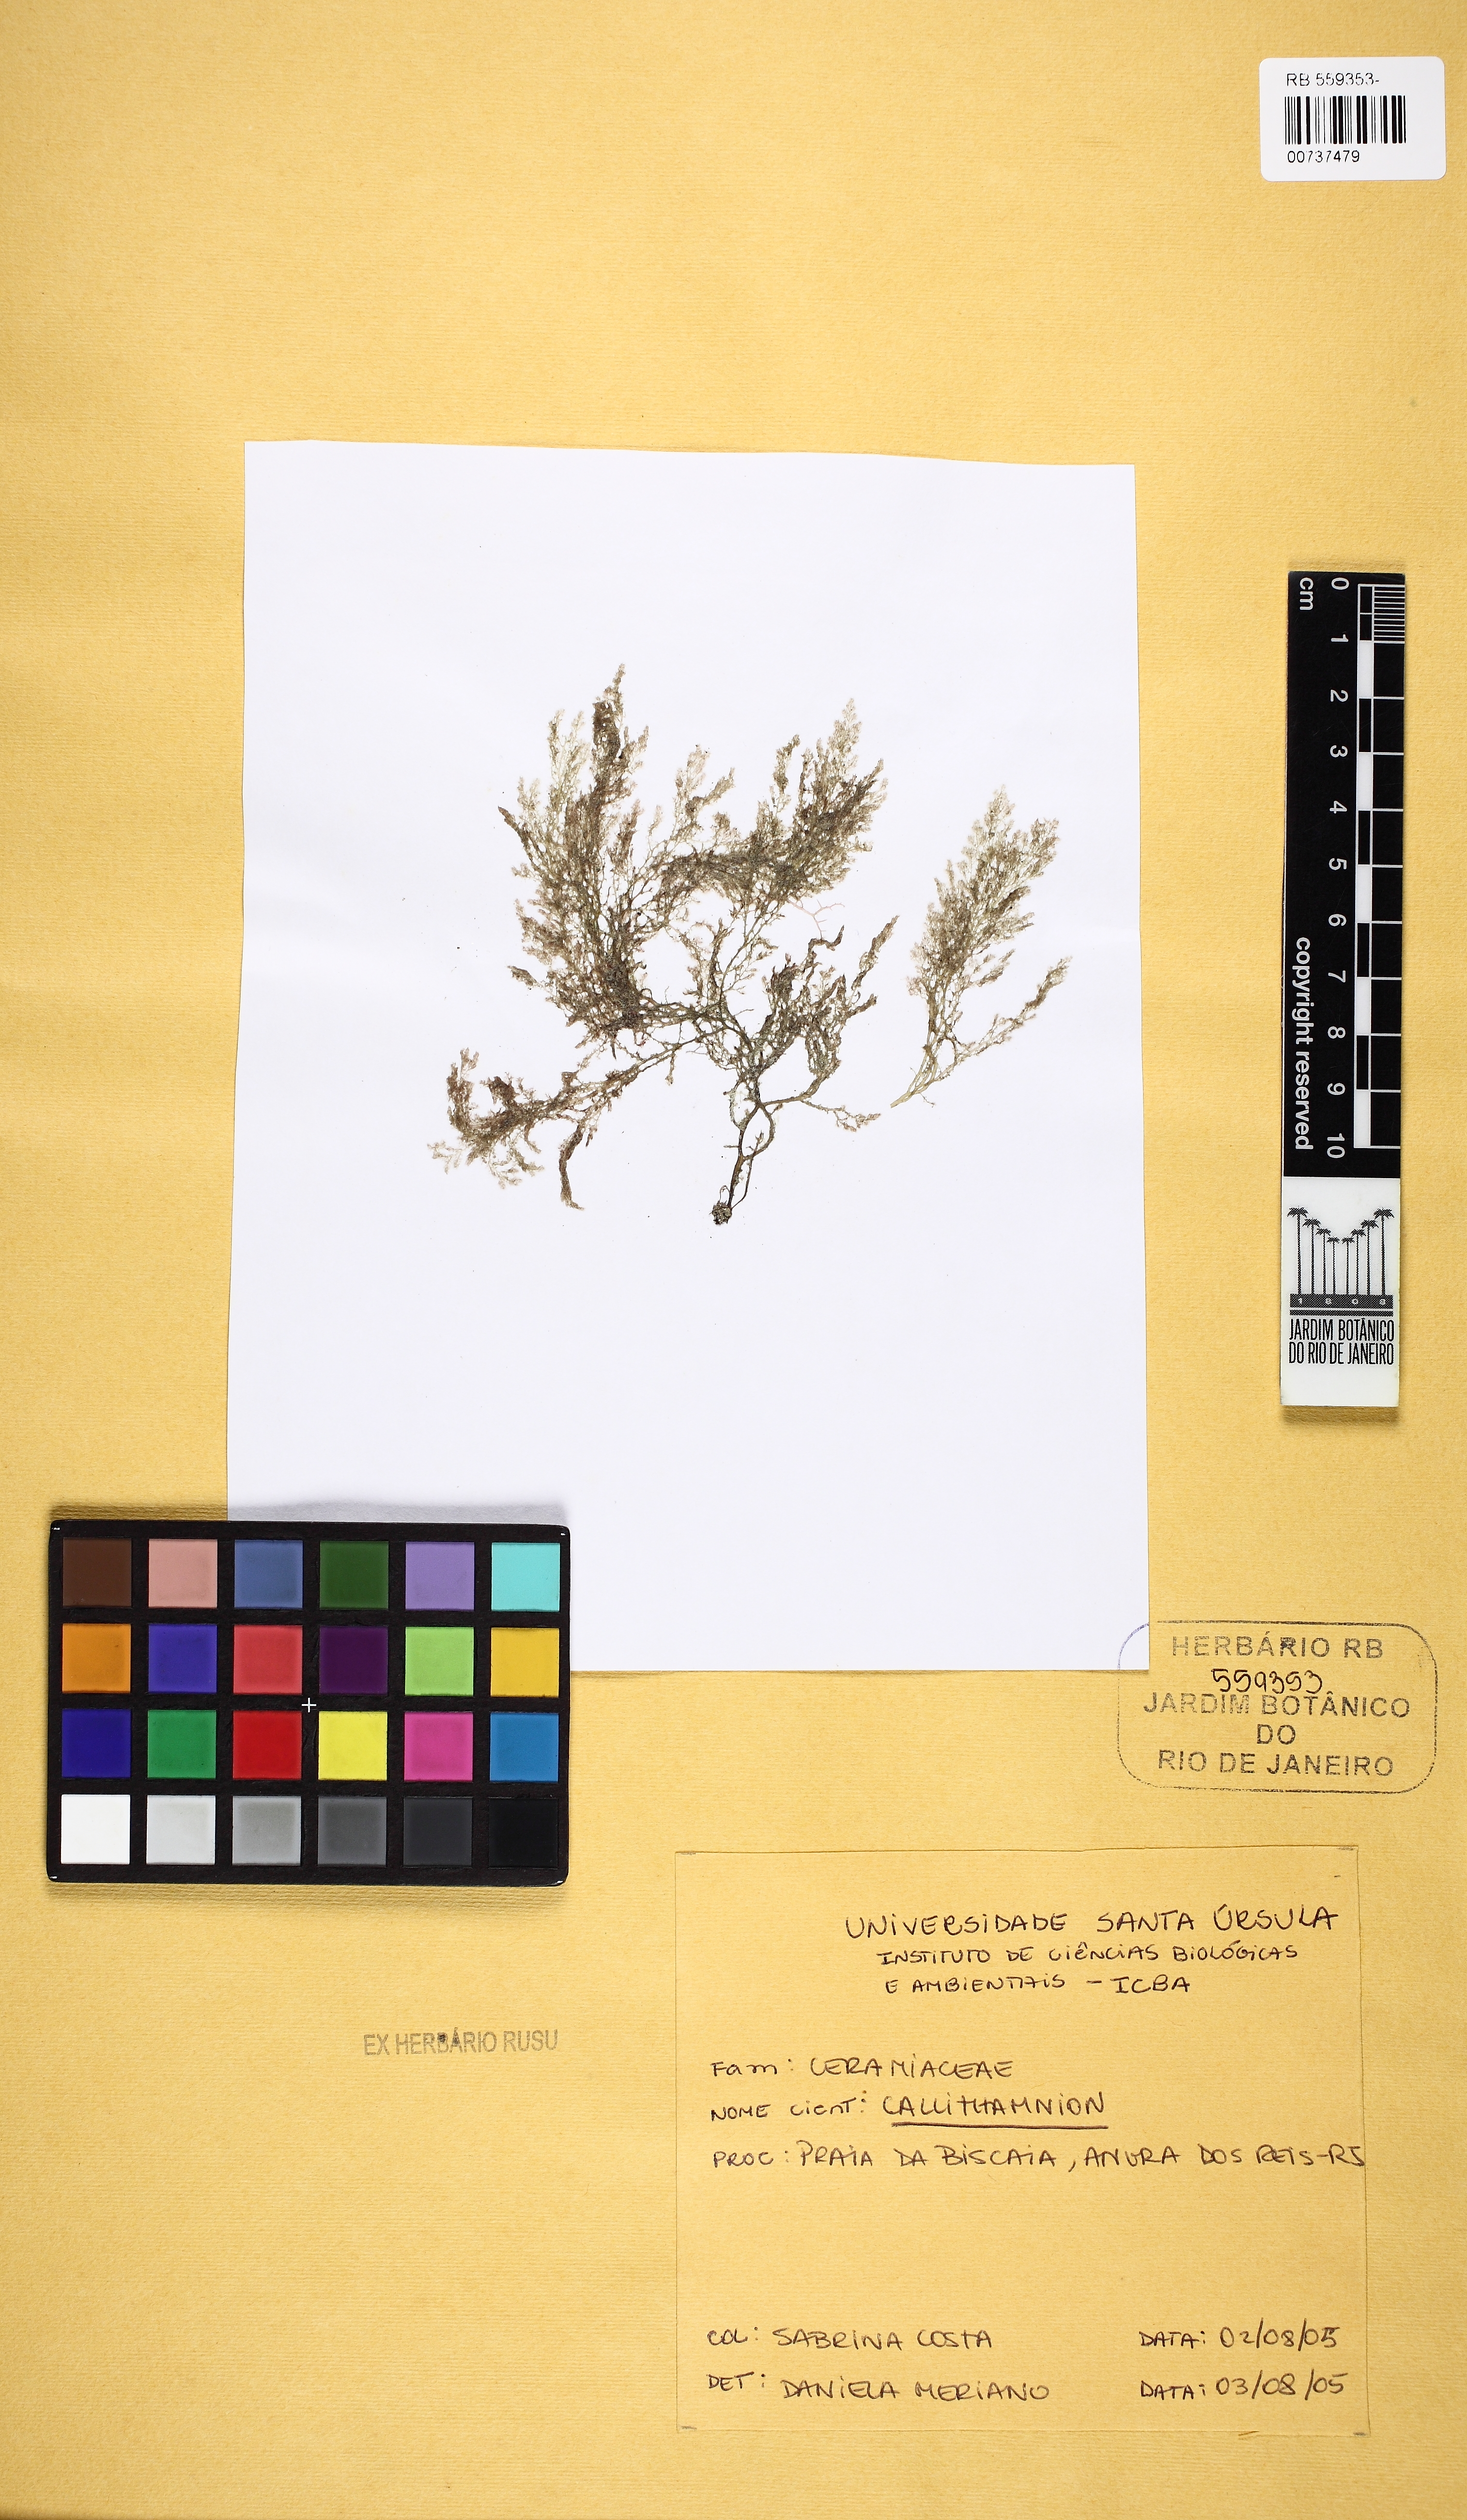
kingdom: Plantae
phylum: Rhodophyta
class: Florideophyceae
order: Ceramiales
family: Callithamniaceae
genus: Callithamnion
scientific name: Callithamnion
